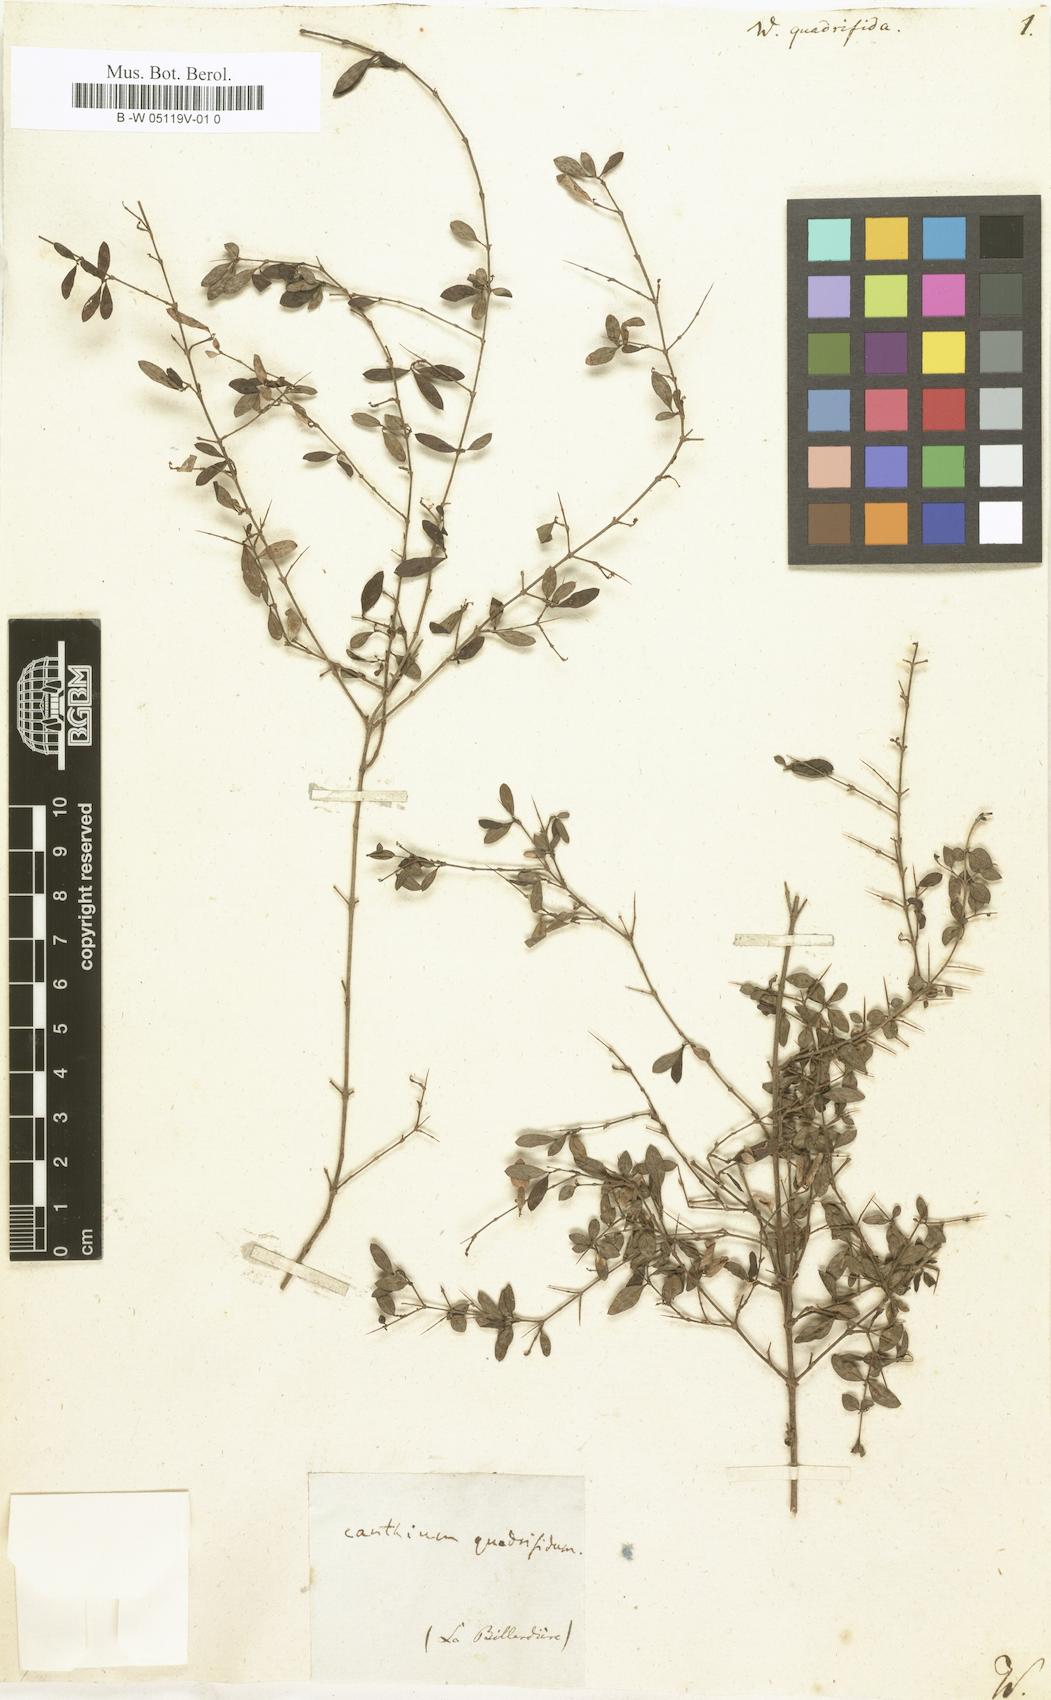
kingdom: Plantae
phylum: Tracheophyta
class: Magnoliopsida
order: Gentianales
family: Rubiaceae
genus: Webera
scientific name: Webera
